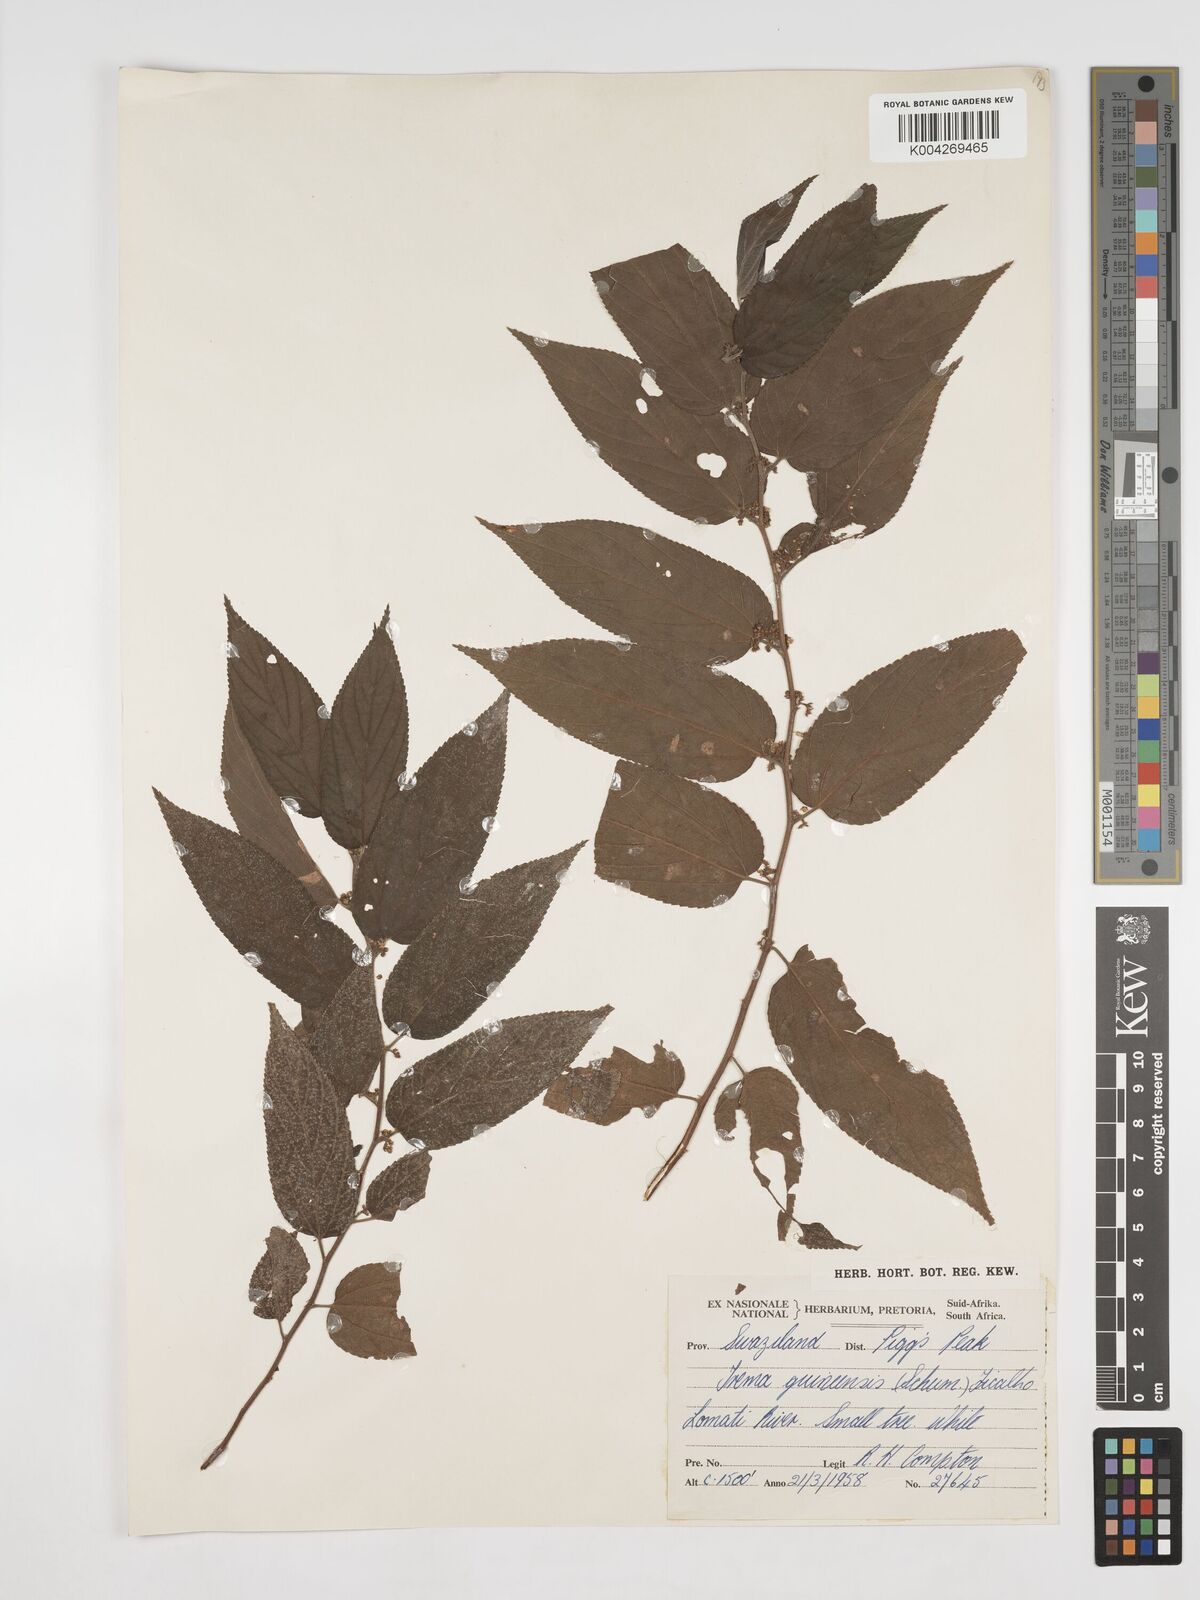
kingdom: Plantae
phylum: Tracheophyta
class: Magnoliopsida
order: Rosales
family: Cannabaceae
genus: Trema
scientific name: Trema orientale
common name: Indian charcoal tree
